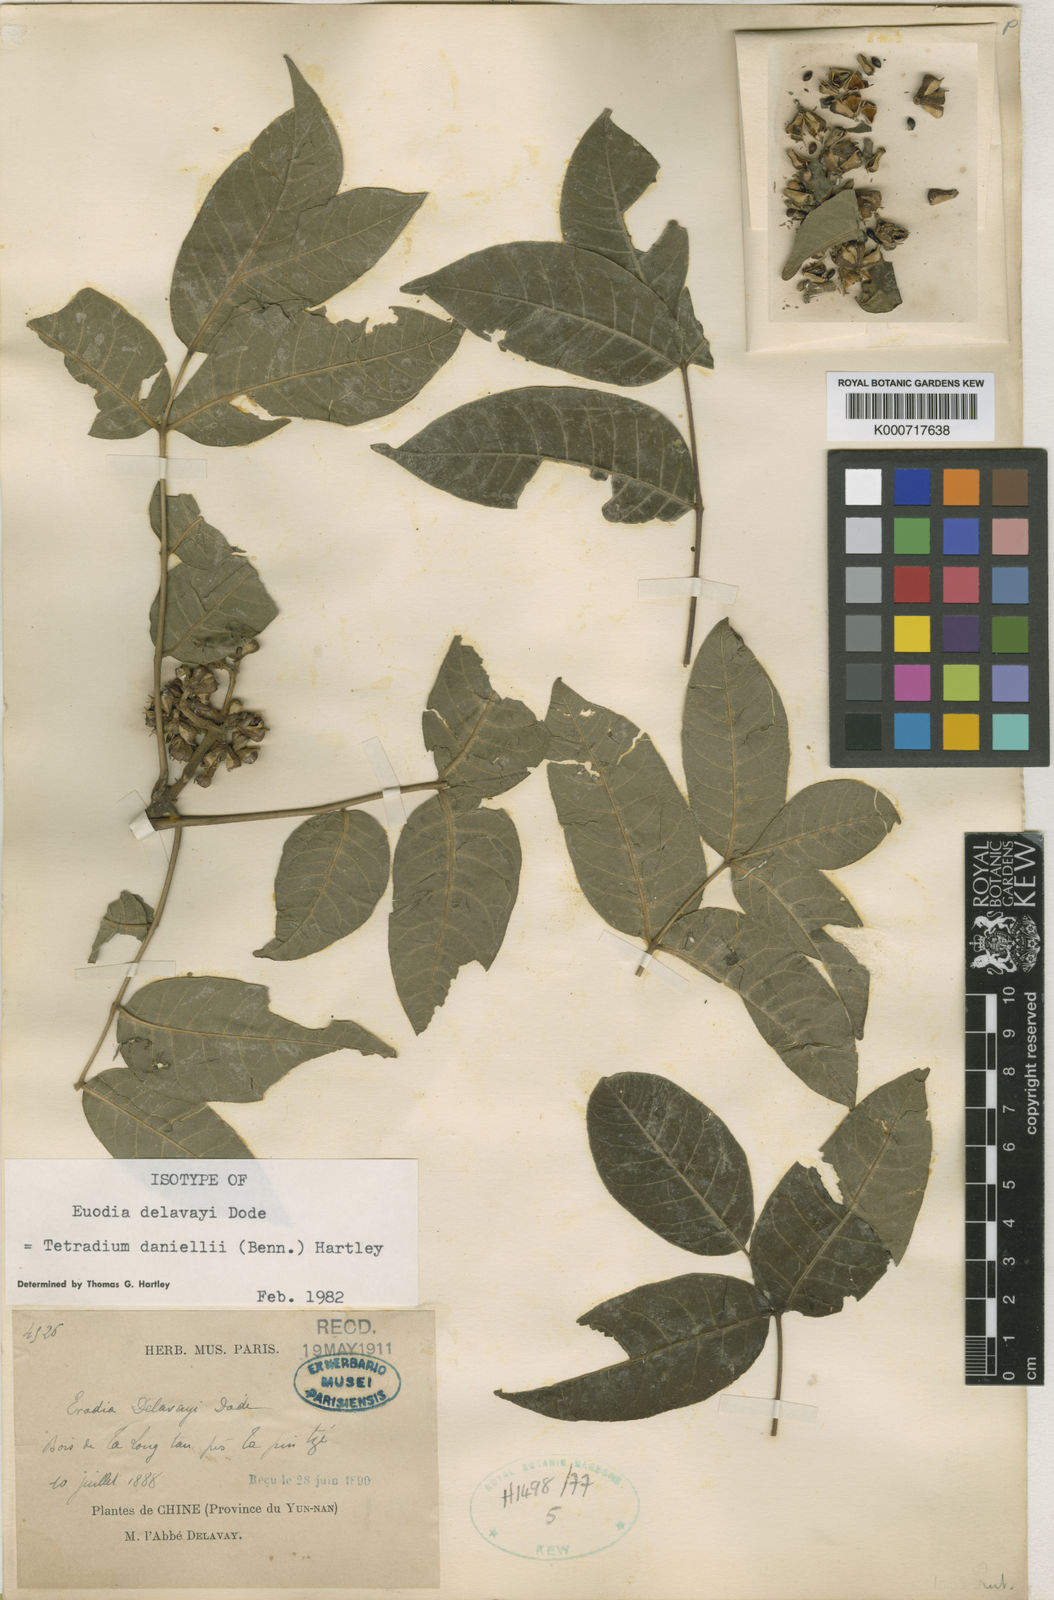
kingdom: Plantae
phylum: Tracheophyta
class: Magnoliopsida
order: Sapindales
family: Rutaceae
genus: Tetradium
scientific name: Tetradium daniellii
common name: Bee-bee tree
